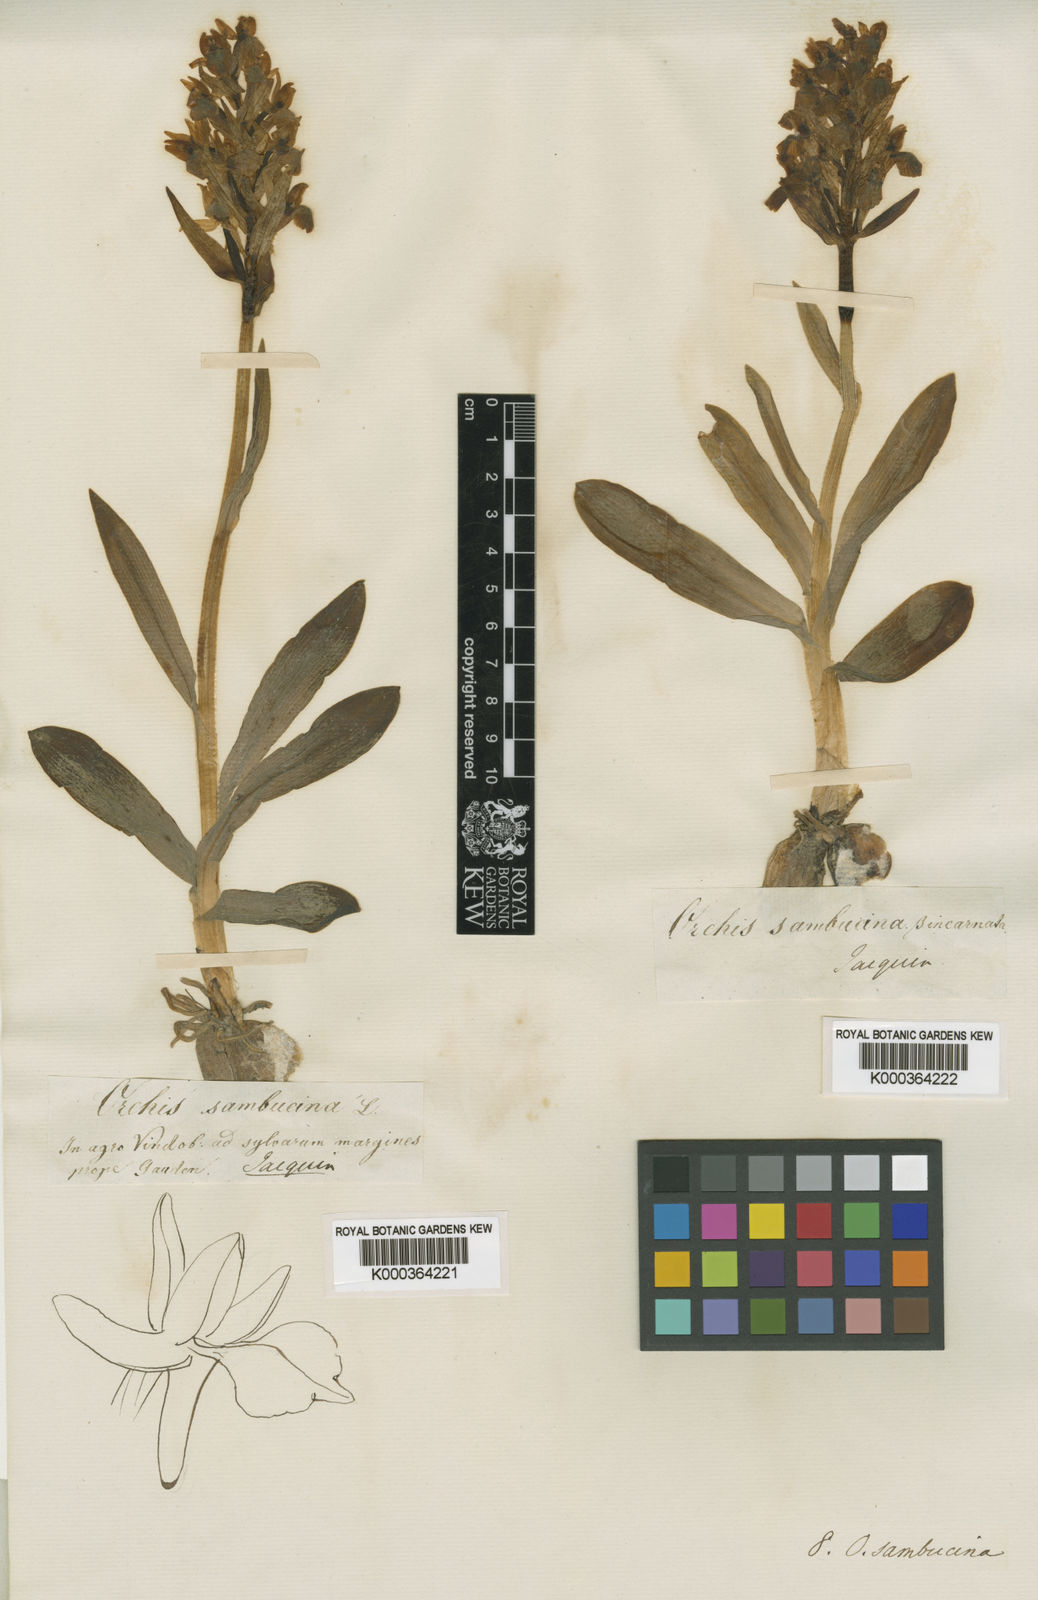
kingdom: Plantae
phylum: Tracheophyta
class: Liliopsida
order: Asparagales
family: Orchidaceae
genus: Dactylorhiza
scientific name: Dactylorhiza
